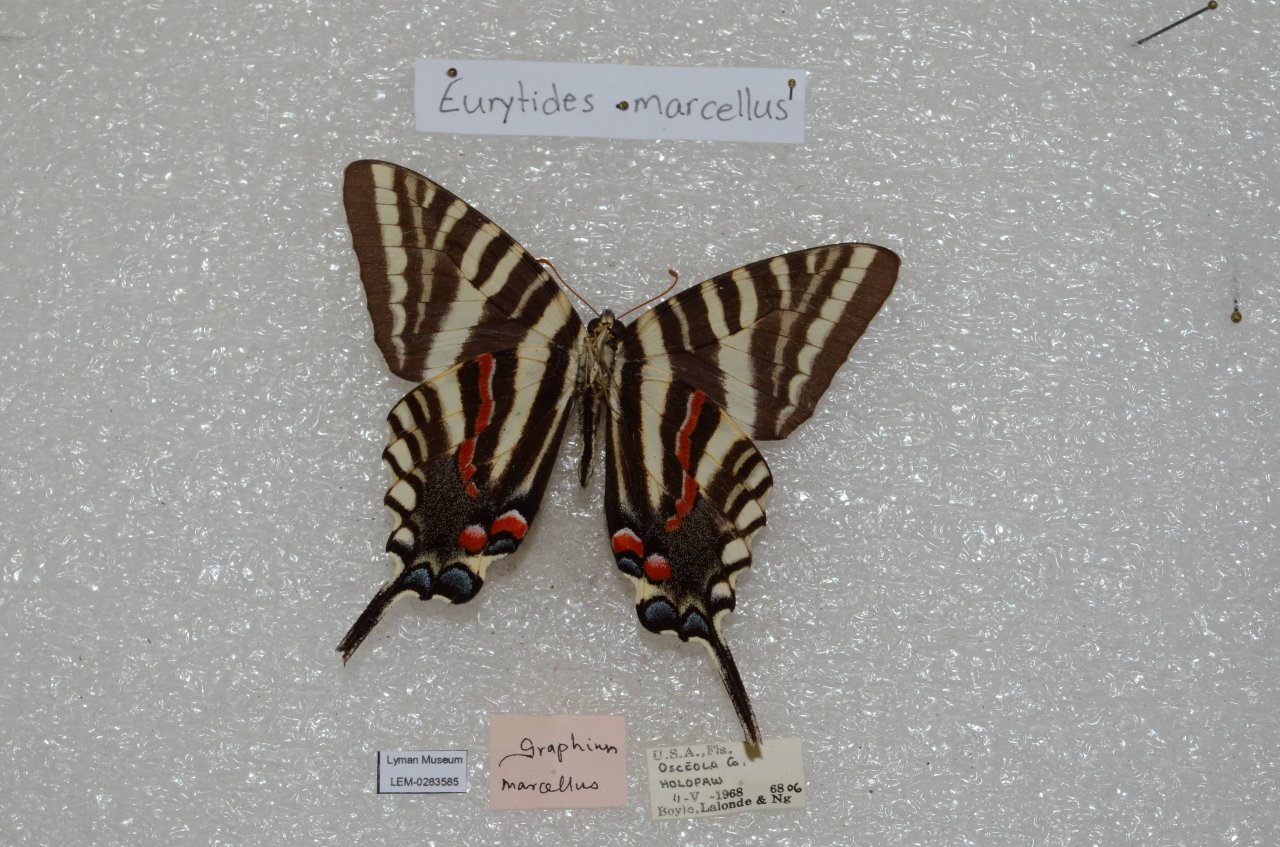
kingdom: Animalia
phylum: Arthropoda
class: Insecta
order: Lepidoptera
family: Papilionidae
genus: Protographium
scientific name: Protographium marcellus
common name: Zebra Swallowtail
